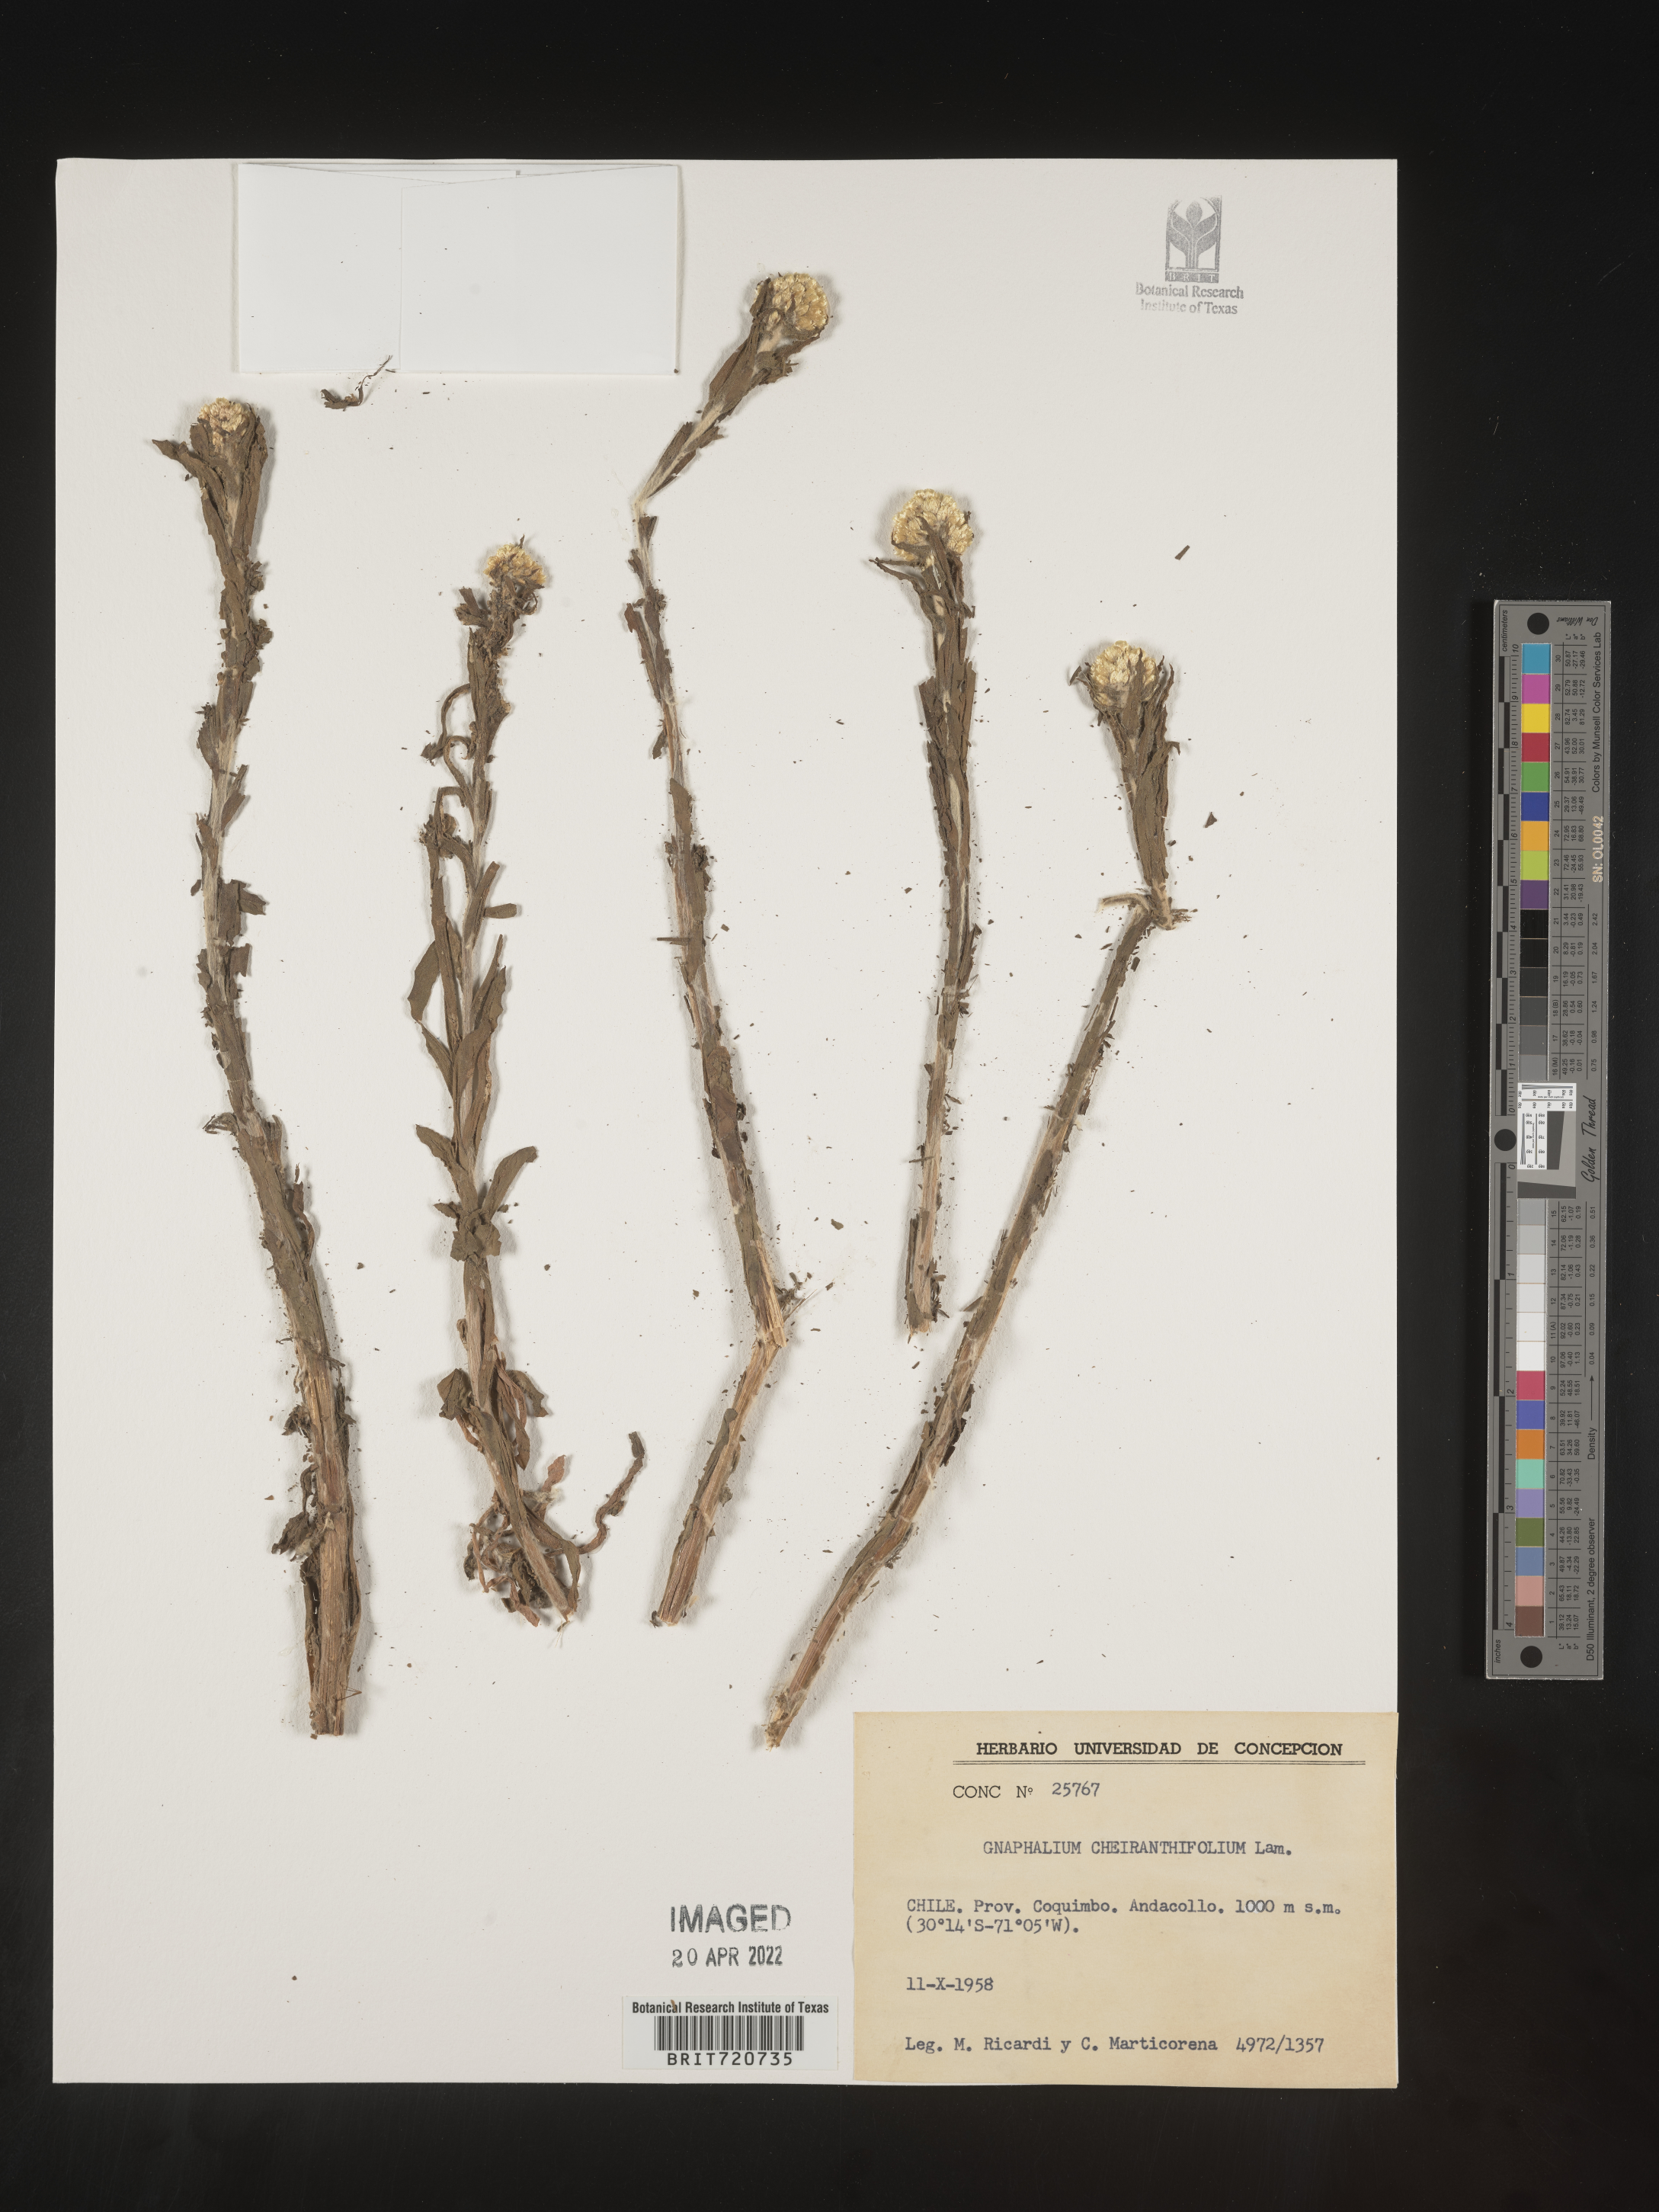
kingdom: Plantae
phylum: Tracheophyta
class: Magnoliopsida
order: Asterales
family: Asteraceae
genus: Gnaphalium
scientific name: Gnaphalium
